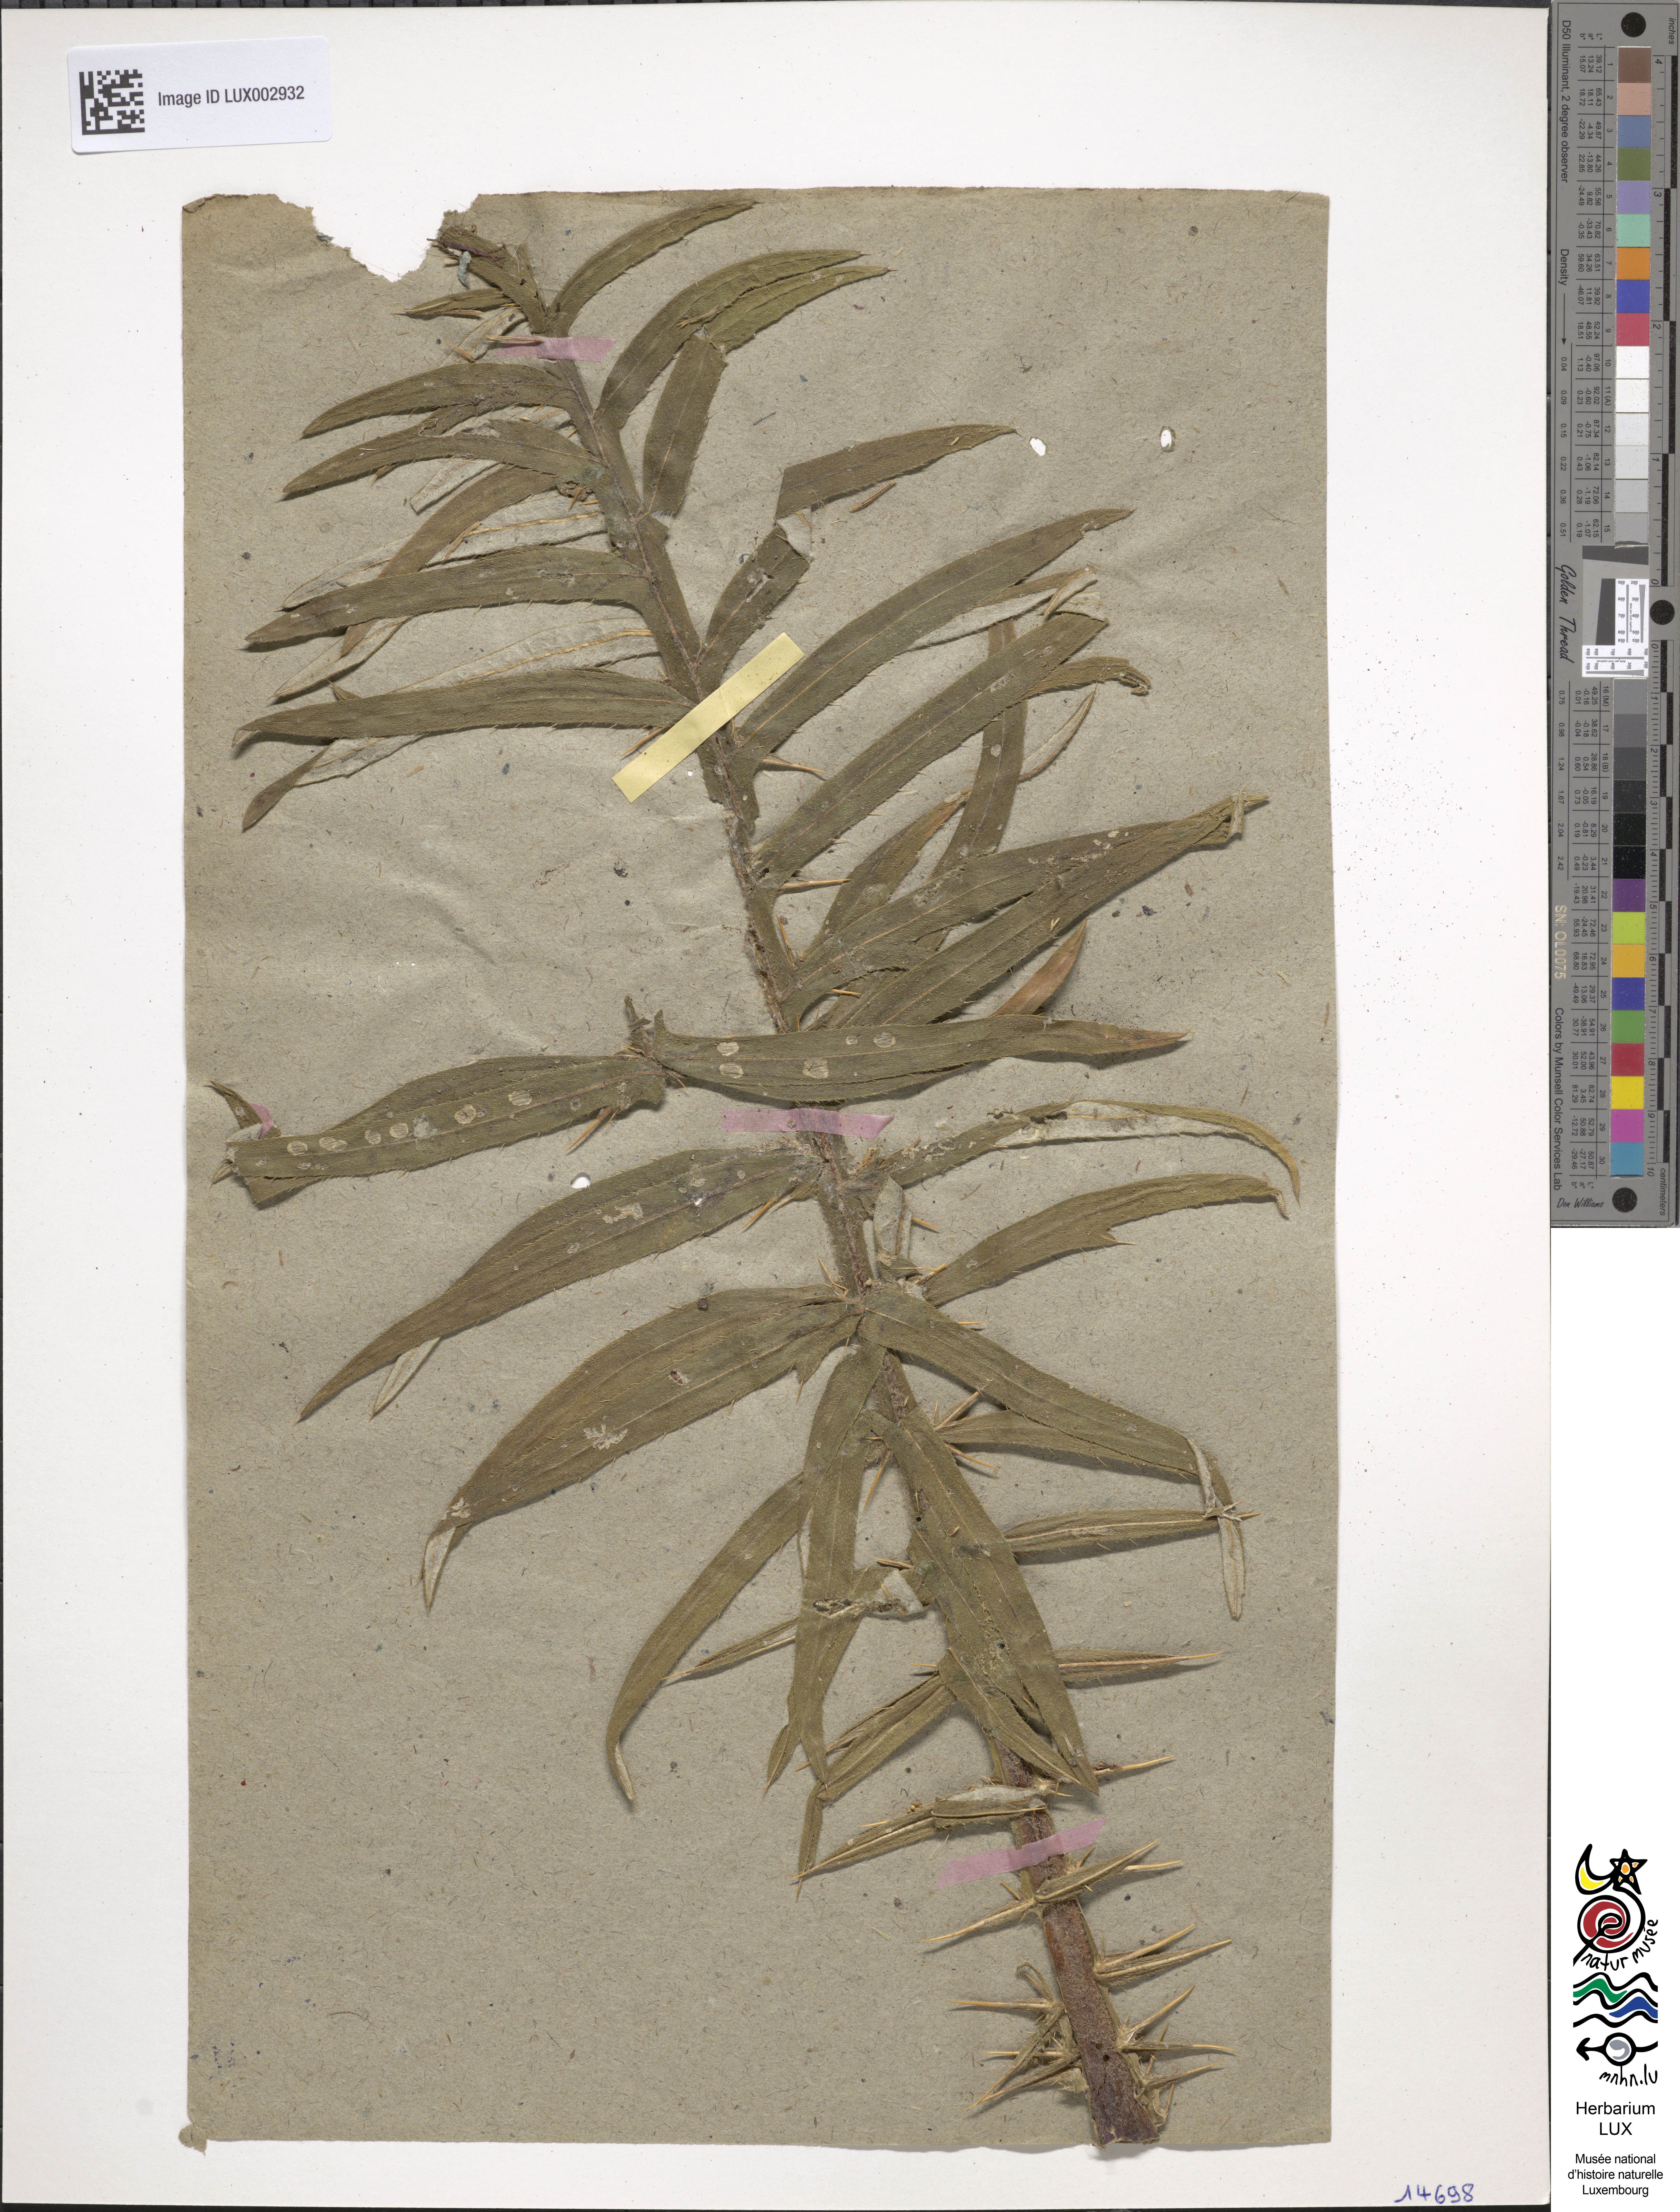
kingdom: Plantae
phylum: Tracheophyta
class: Magnoliopsida
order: Asterales
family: Asteraceae
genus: Lophiolepis
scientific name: Lophiolepis eriophora
